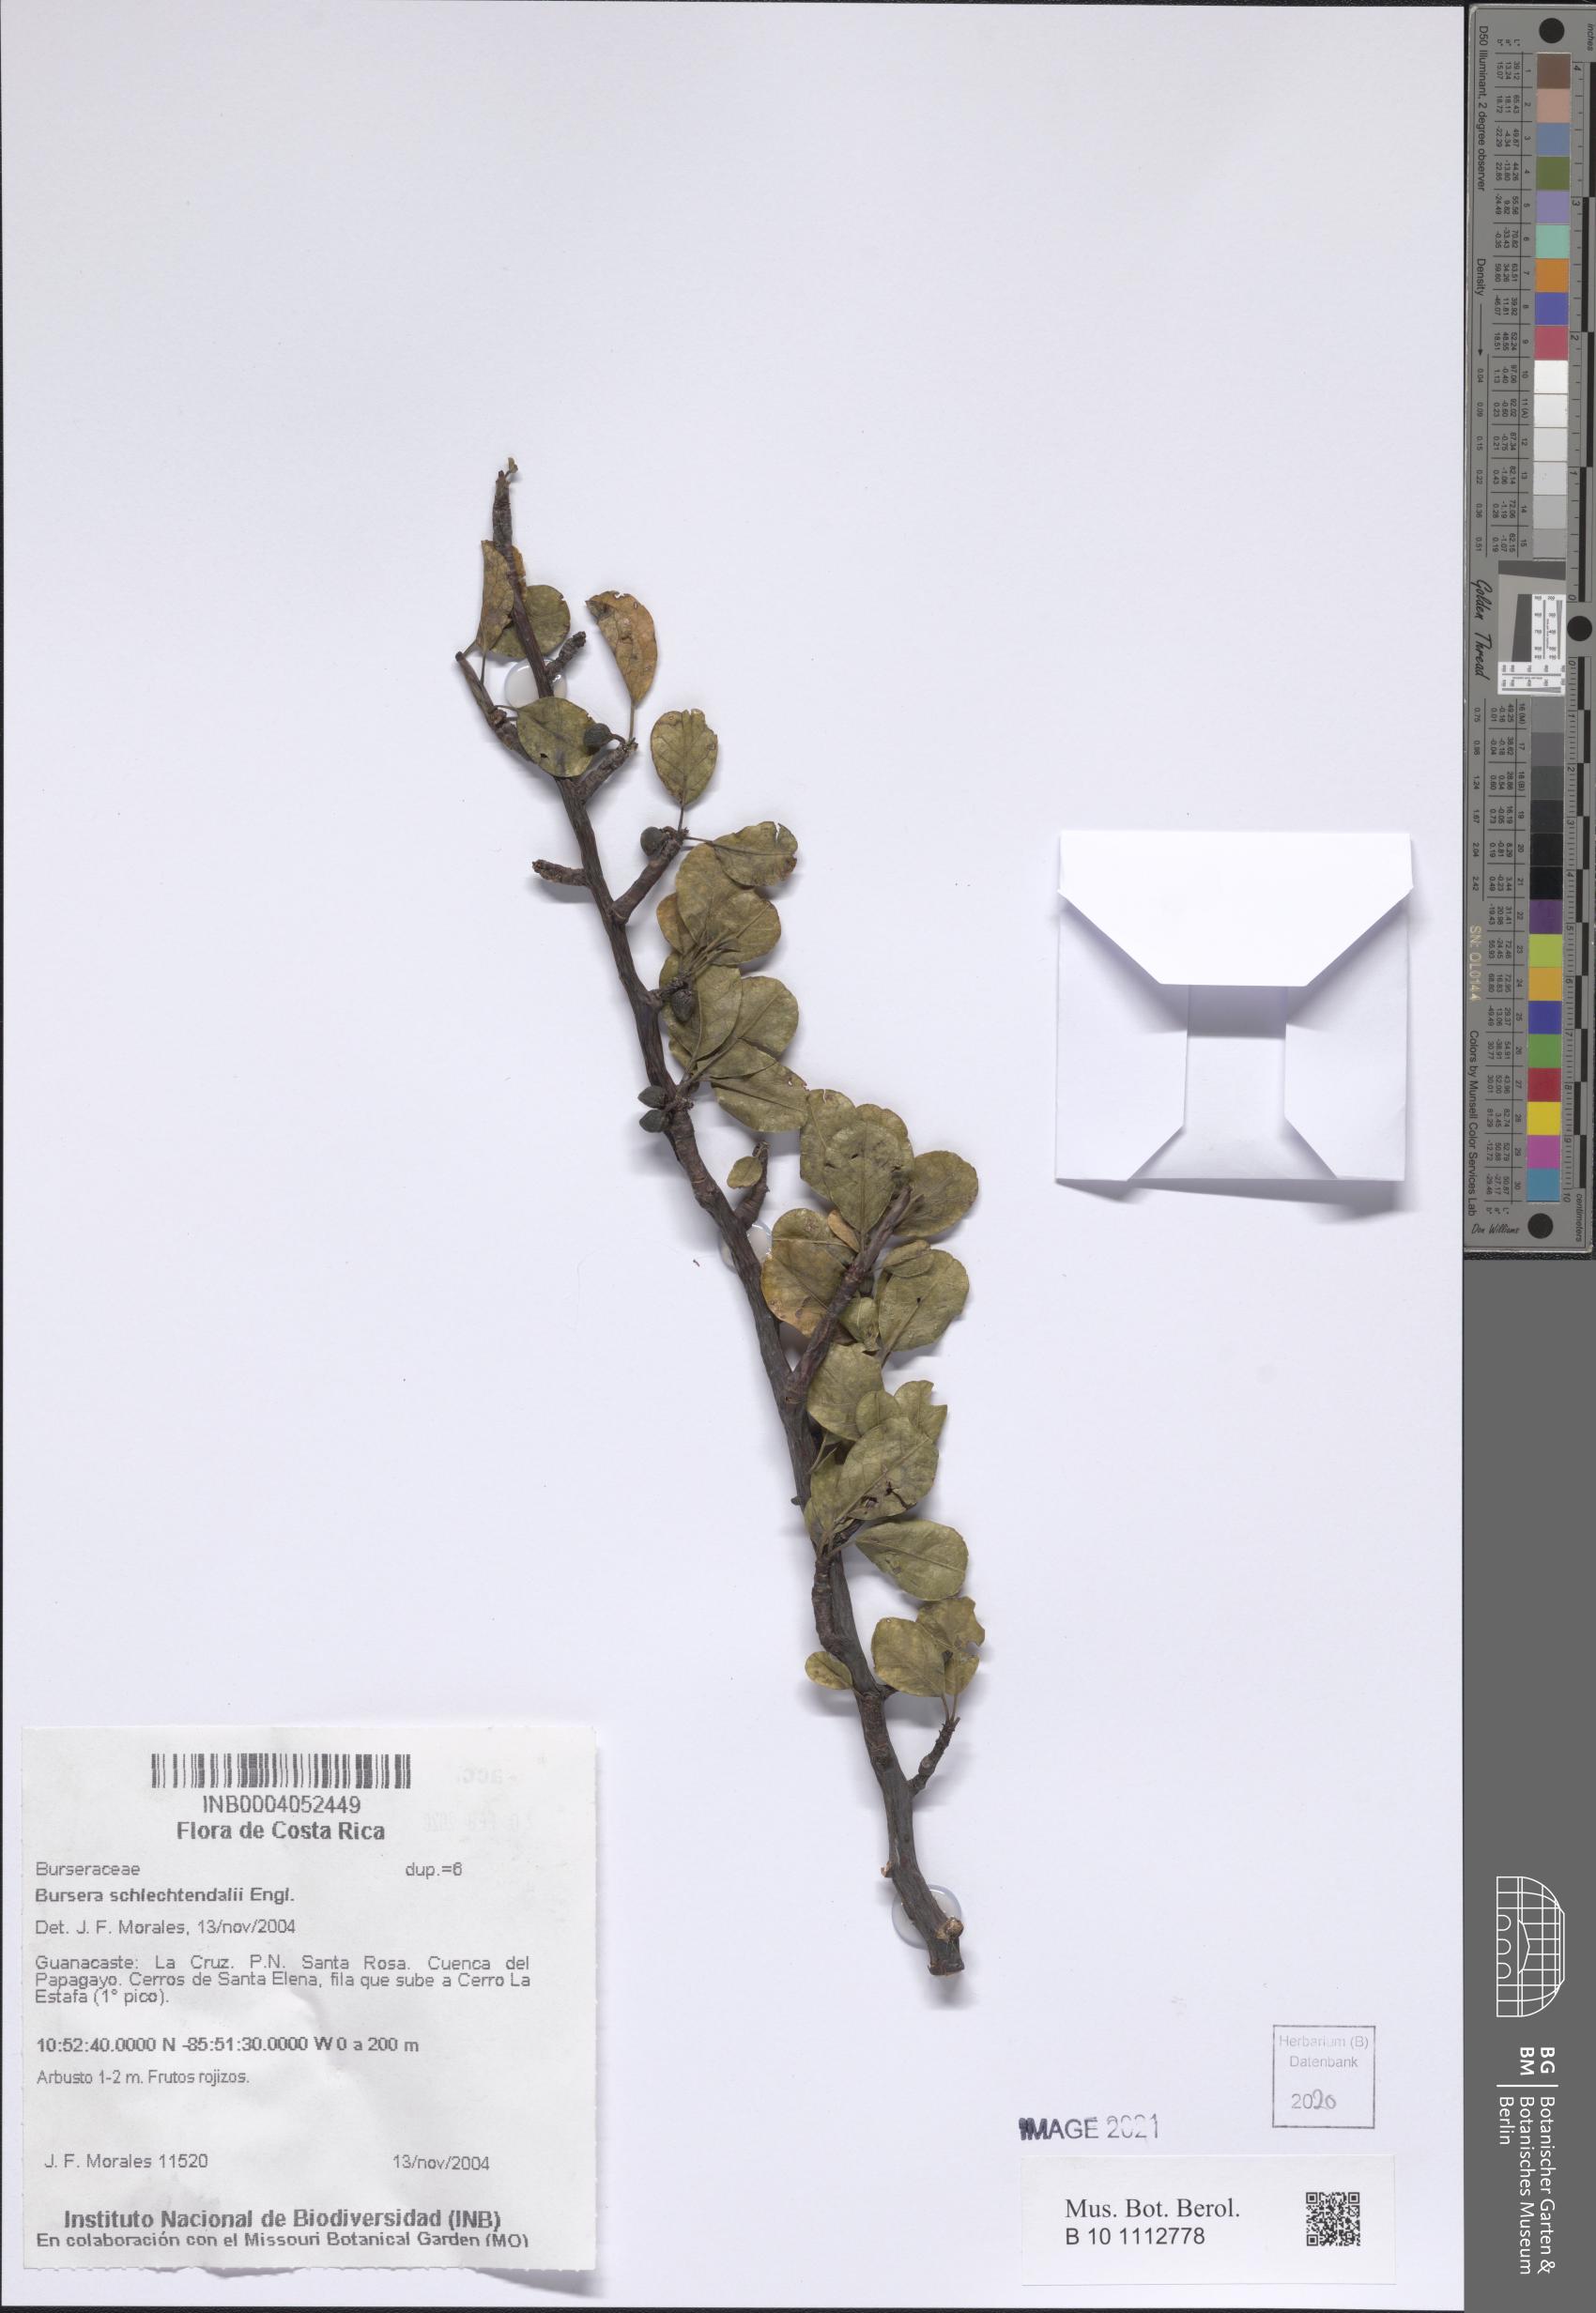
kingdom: Plantae
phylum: Tracheophyta
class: Magnoliopsida
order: Sapindales
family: Burseraceae
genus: Bursera
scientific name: Bursera schlechtendalii
